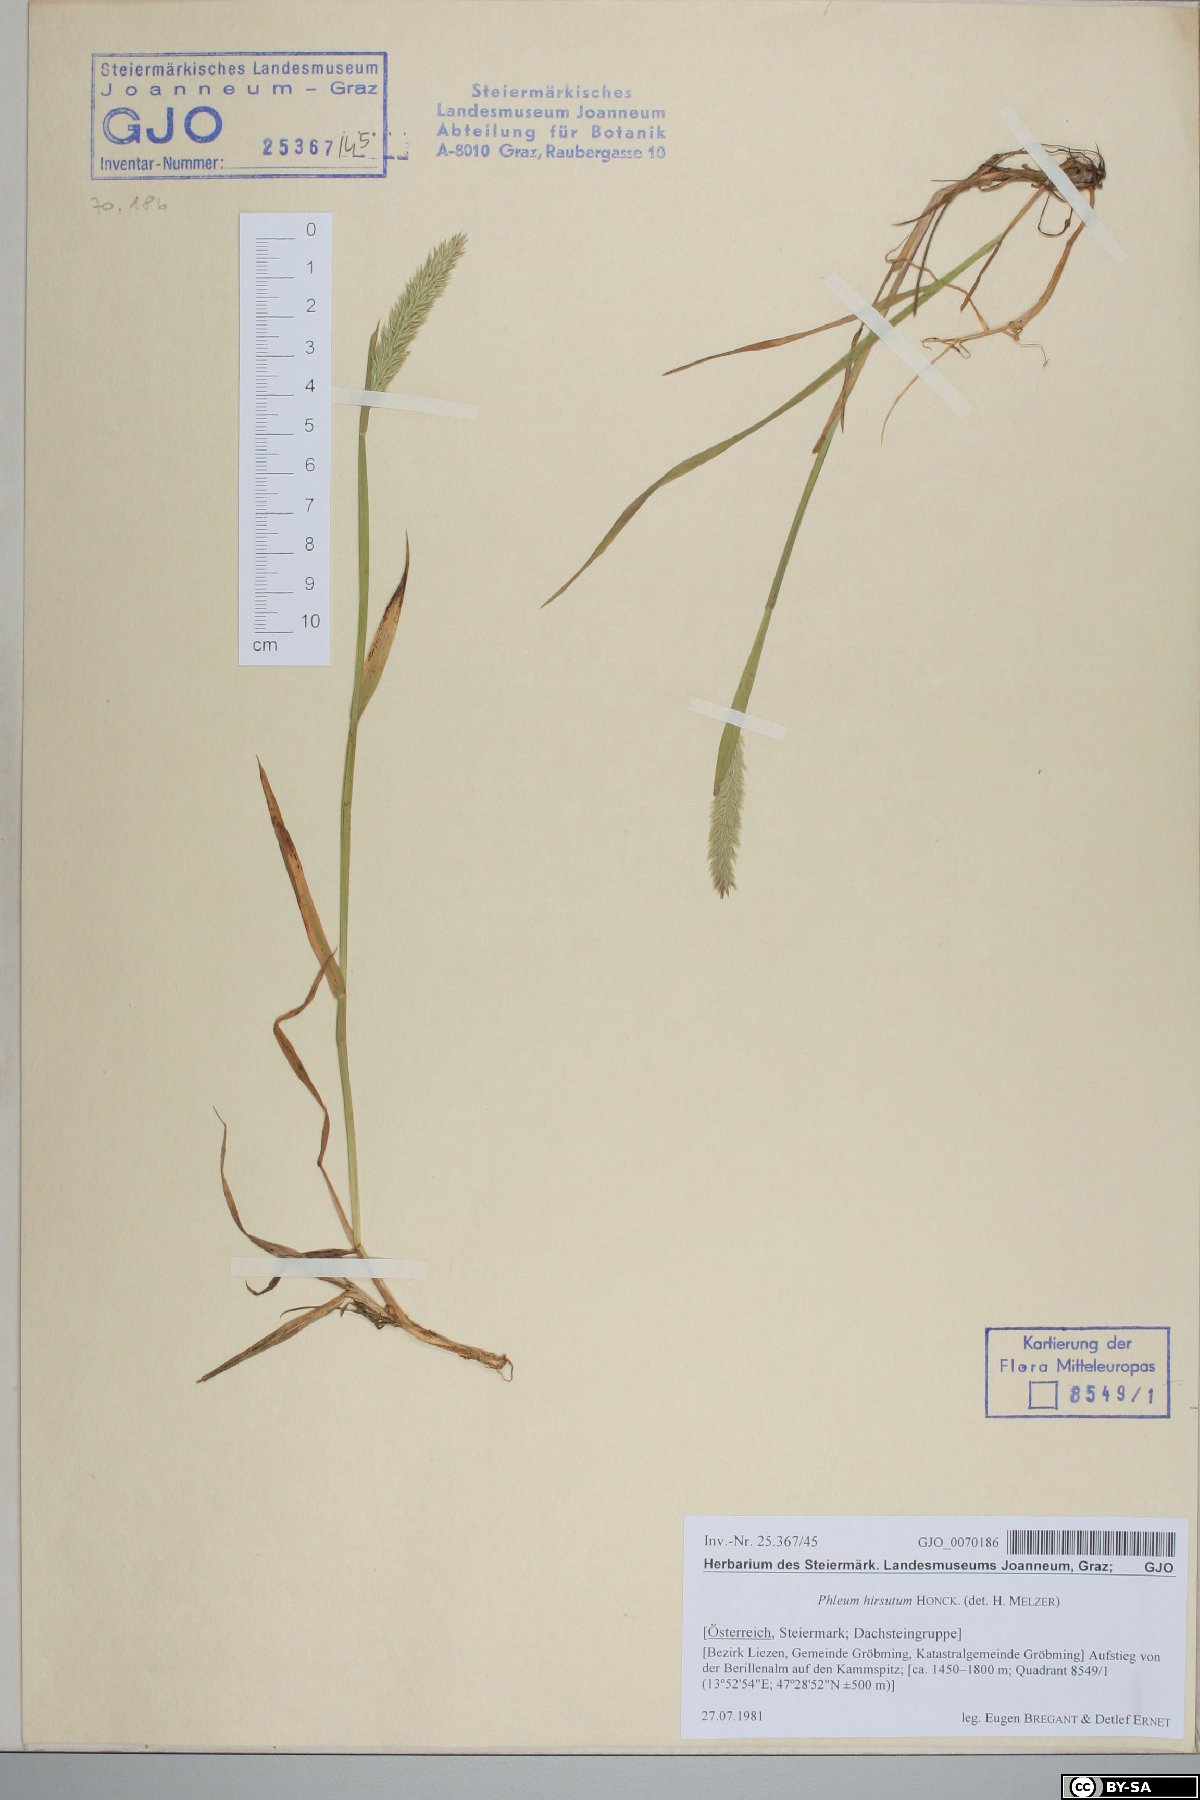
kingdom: Plantae
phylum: Tracheophyta
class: Liliopsida
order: Poales
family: Poaceae
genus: Phleum
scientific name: Phleum hirsutum
